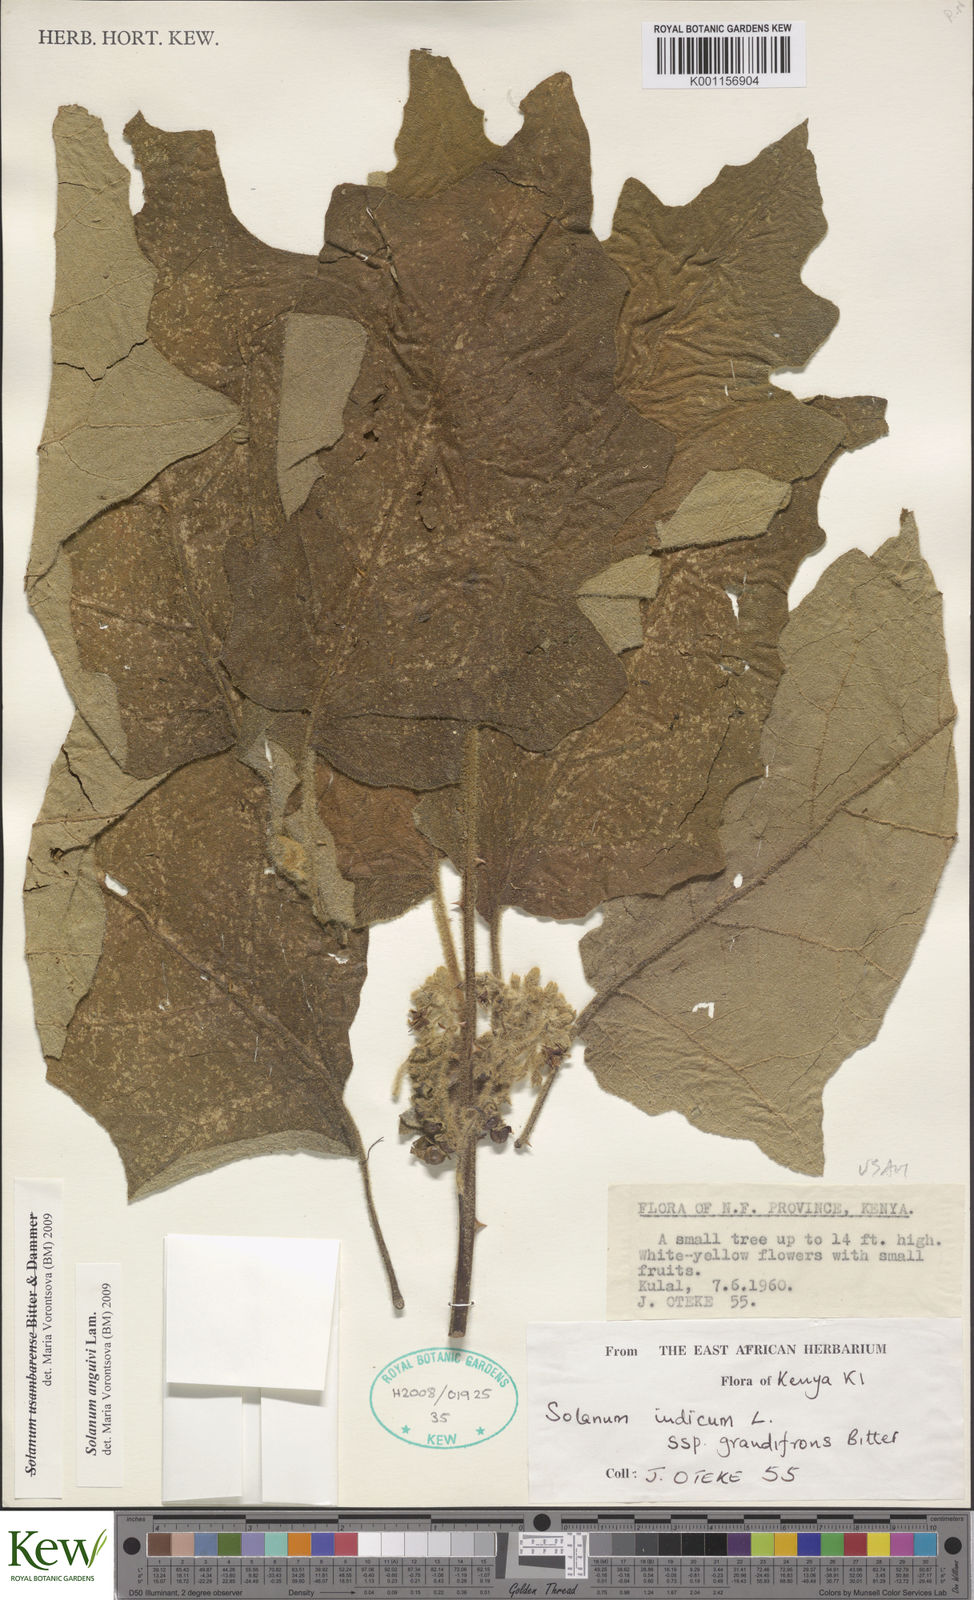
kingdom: Plantae
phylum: Tracheophyta
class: Magnoliopsida
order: Solanales
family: Solanaceae
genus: Solanum
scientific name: Solanum anguivi
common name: Forest bitterberry
